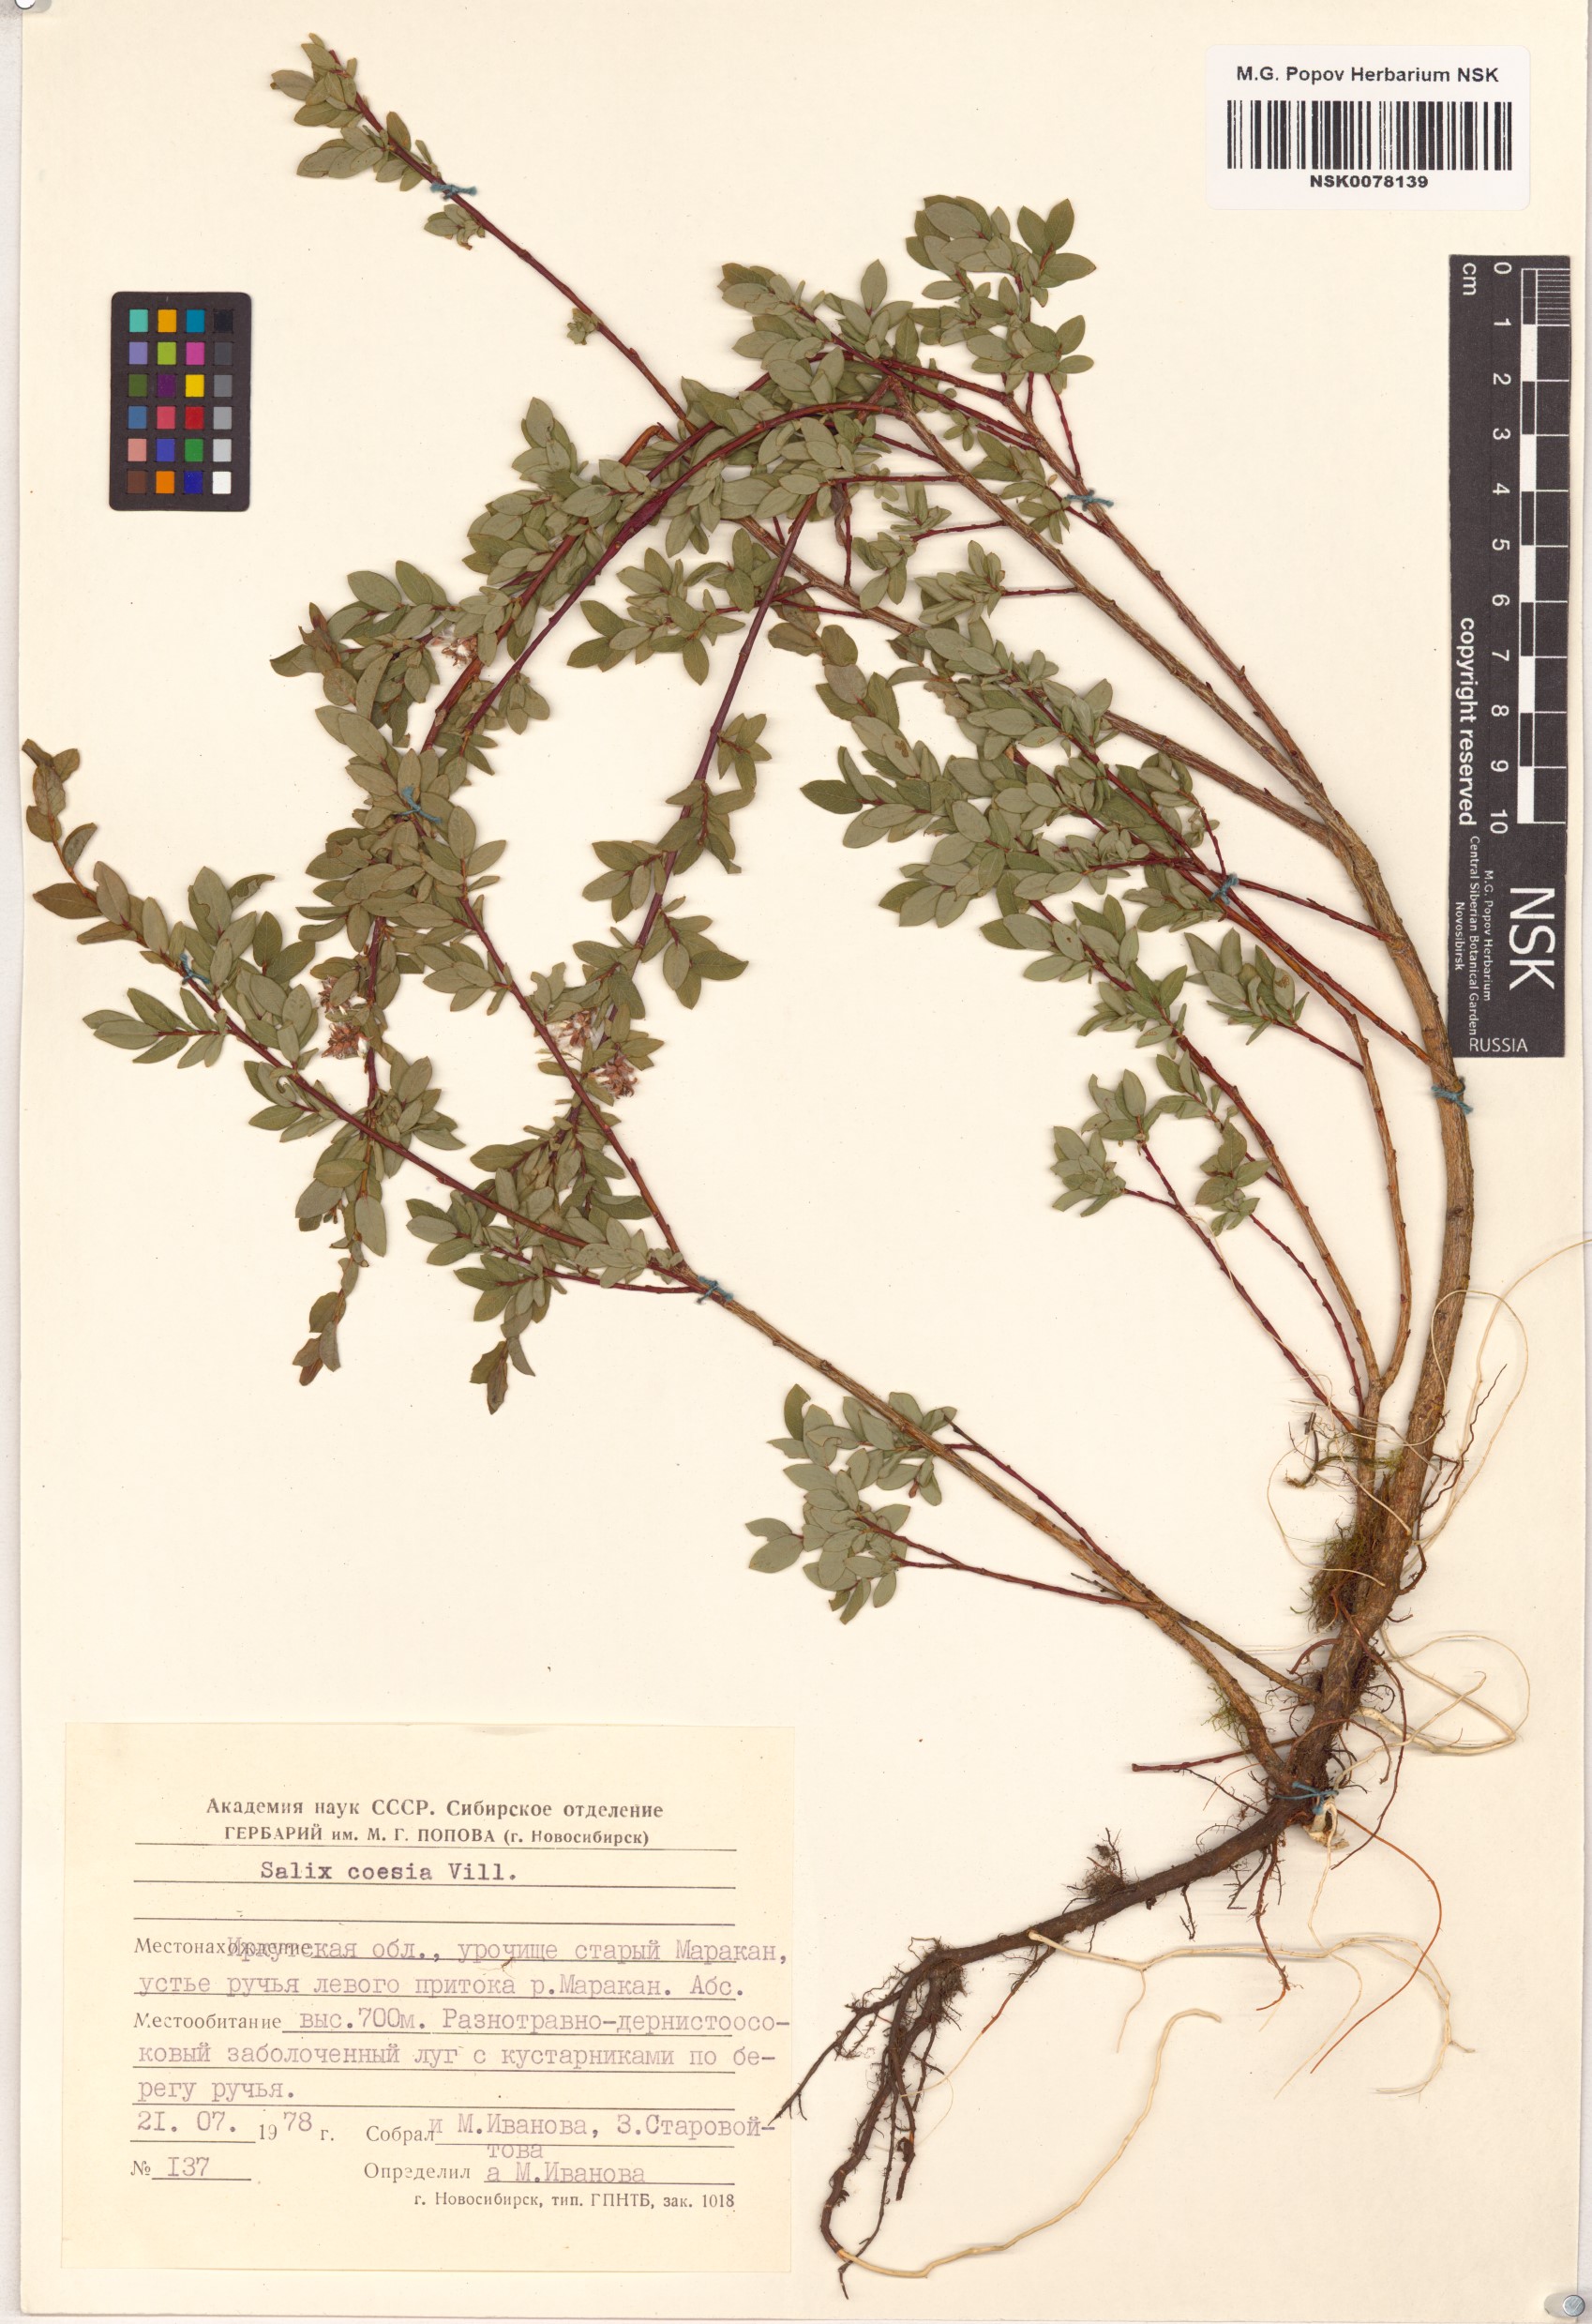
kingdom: Plantae
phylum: Tracheophyta
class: Magnoliopsida
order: Malpighiales
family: Salicaceae
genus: Salix
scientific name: Salix caesia
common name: Blue willow
